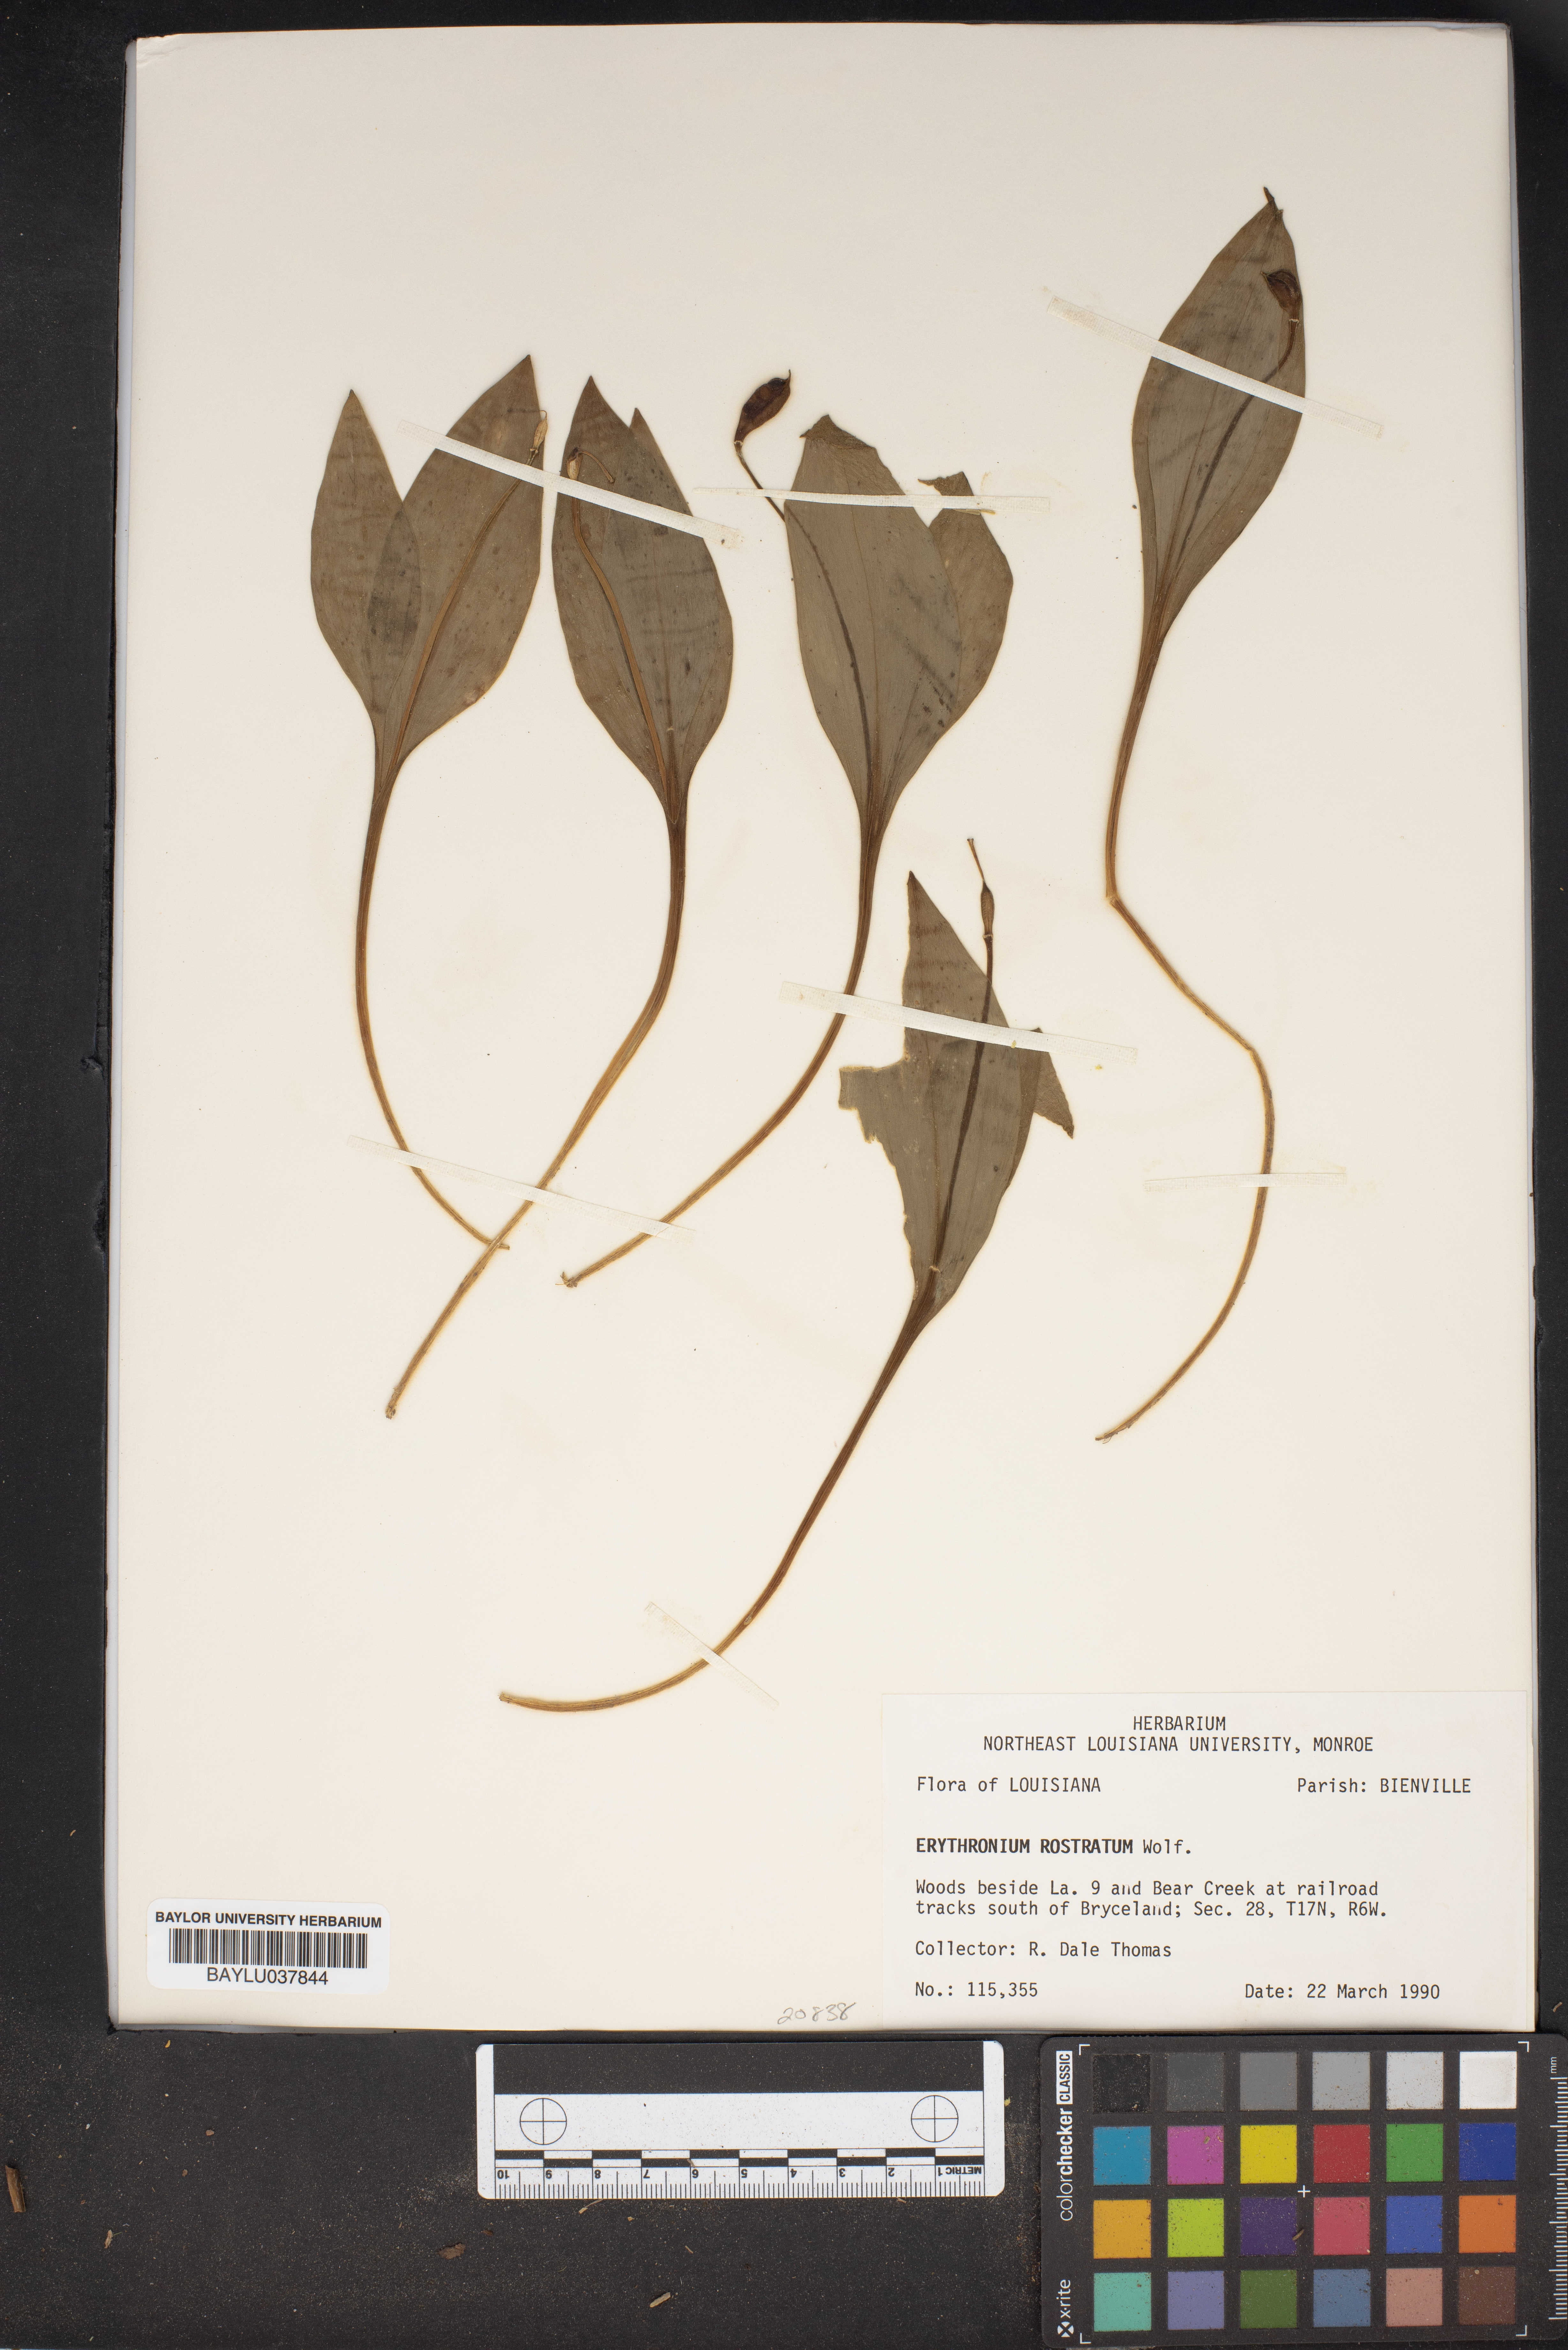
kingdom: Plantae
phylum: Tracheophyta
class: Liliopsida
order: Liliales
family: Liliaceae
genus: Erythronium
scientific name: Erythronium rostratum
